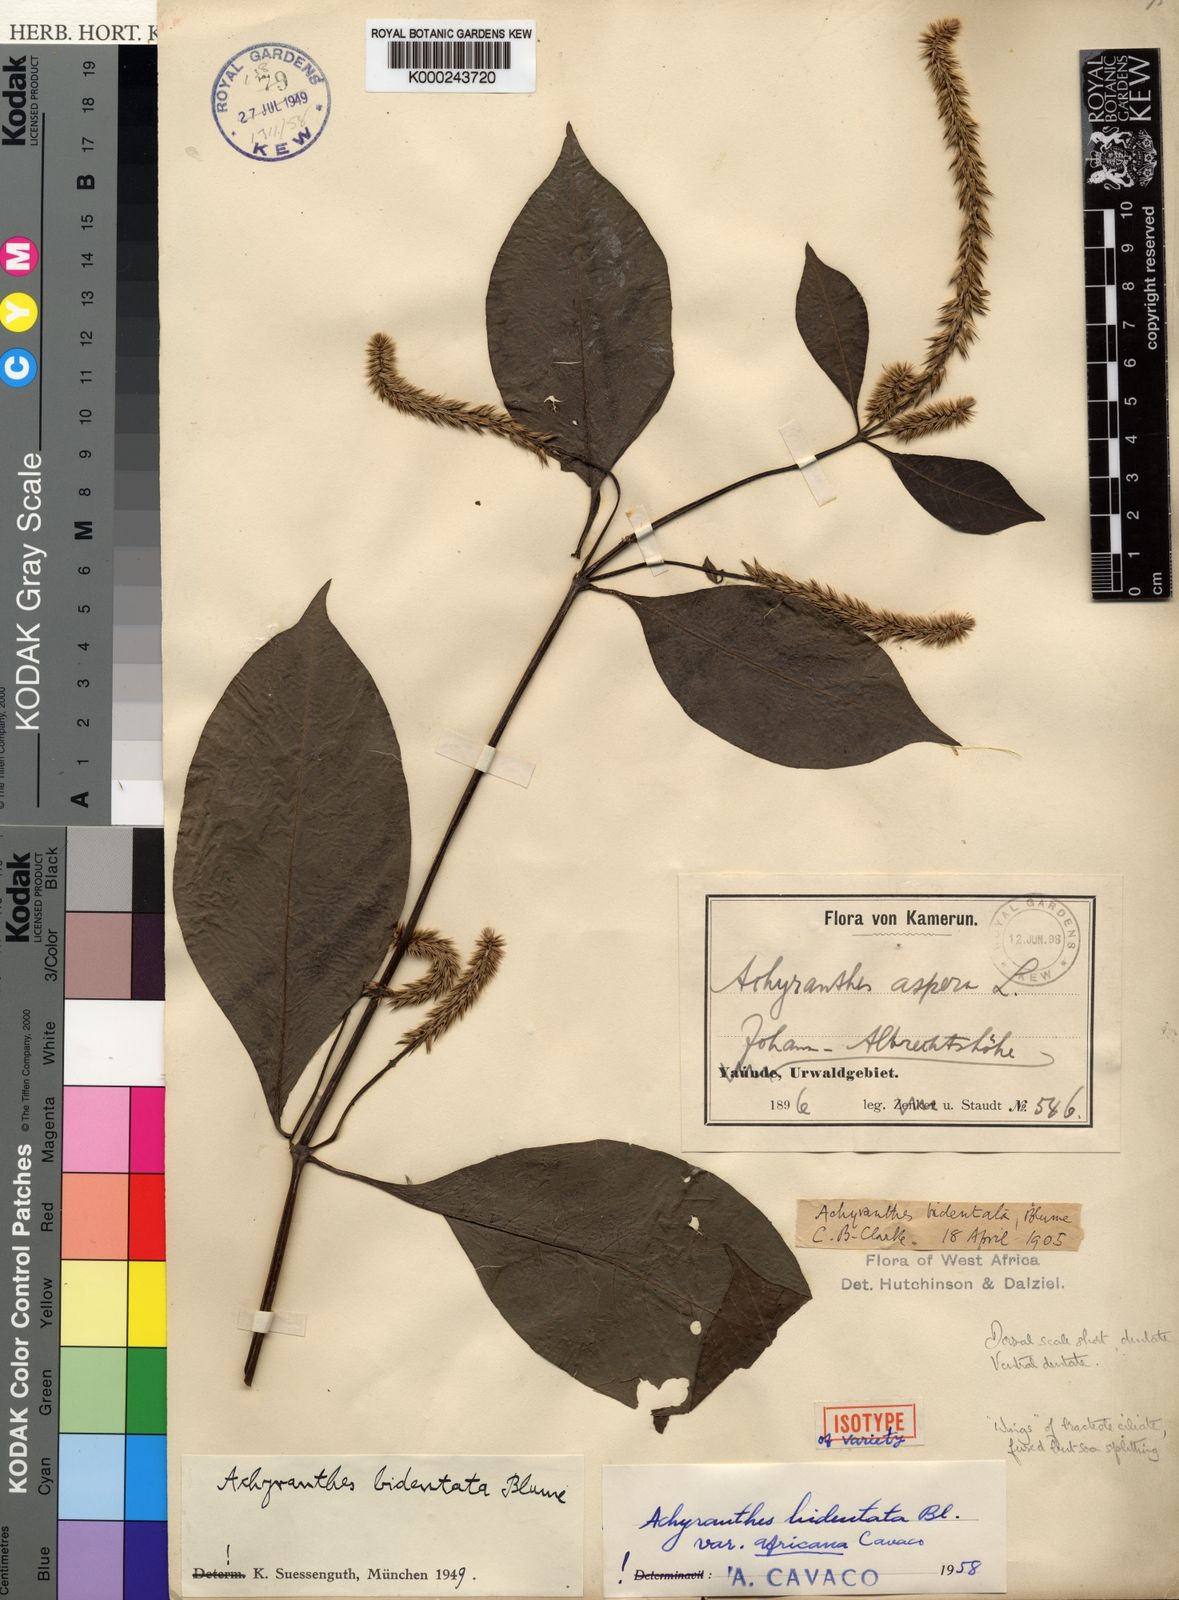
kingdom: Plantae
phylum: Tracheophyta
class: Magnoliopsida
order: Caryophyllales
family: Amaranthaceae
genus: Achyranthes
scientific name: Achyranthes bidentata
